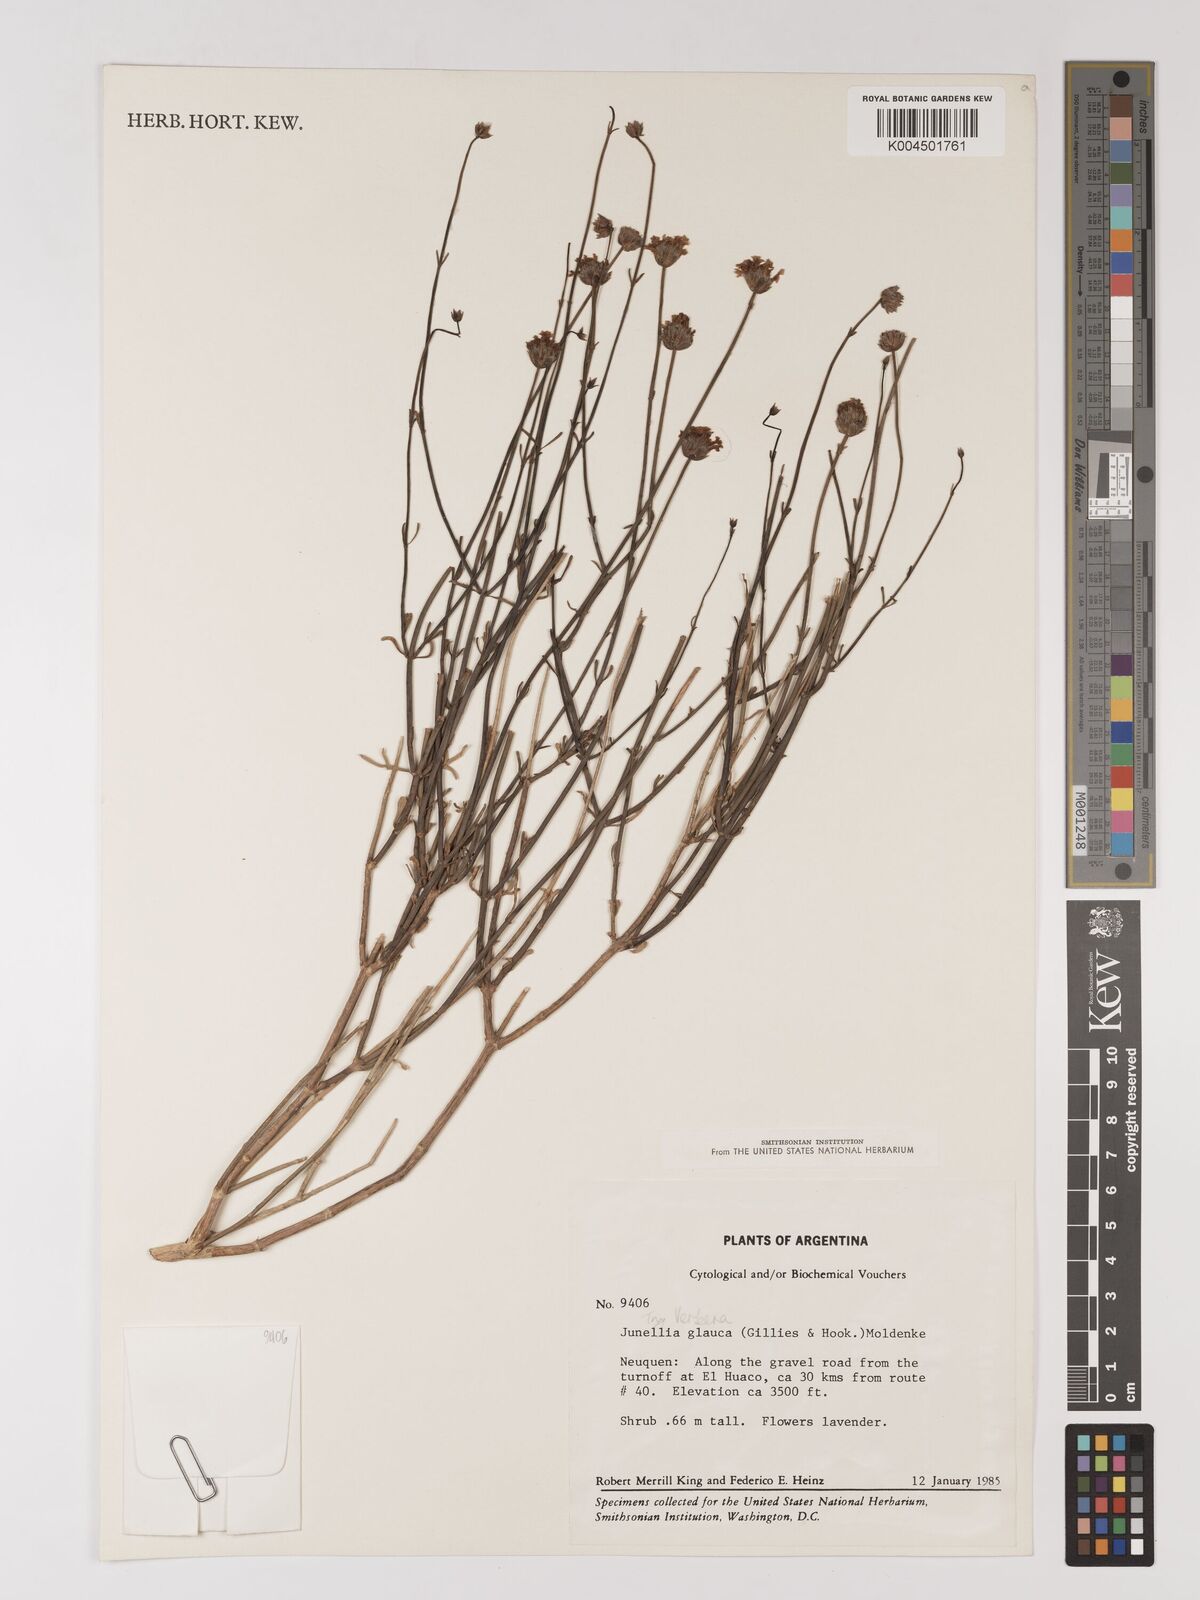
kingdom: Plantae
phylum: Tracheophyta
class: Magnoliopsida
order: Lamiales
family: Verbenaceae
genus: Junellia
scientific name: Junellia spathulata
